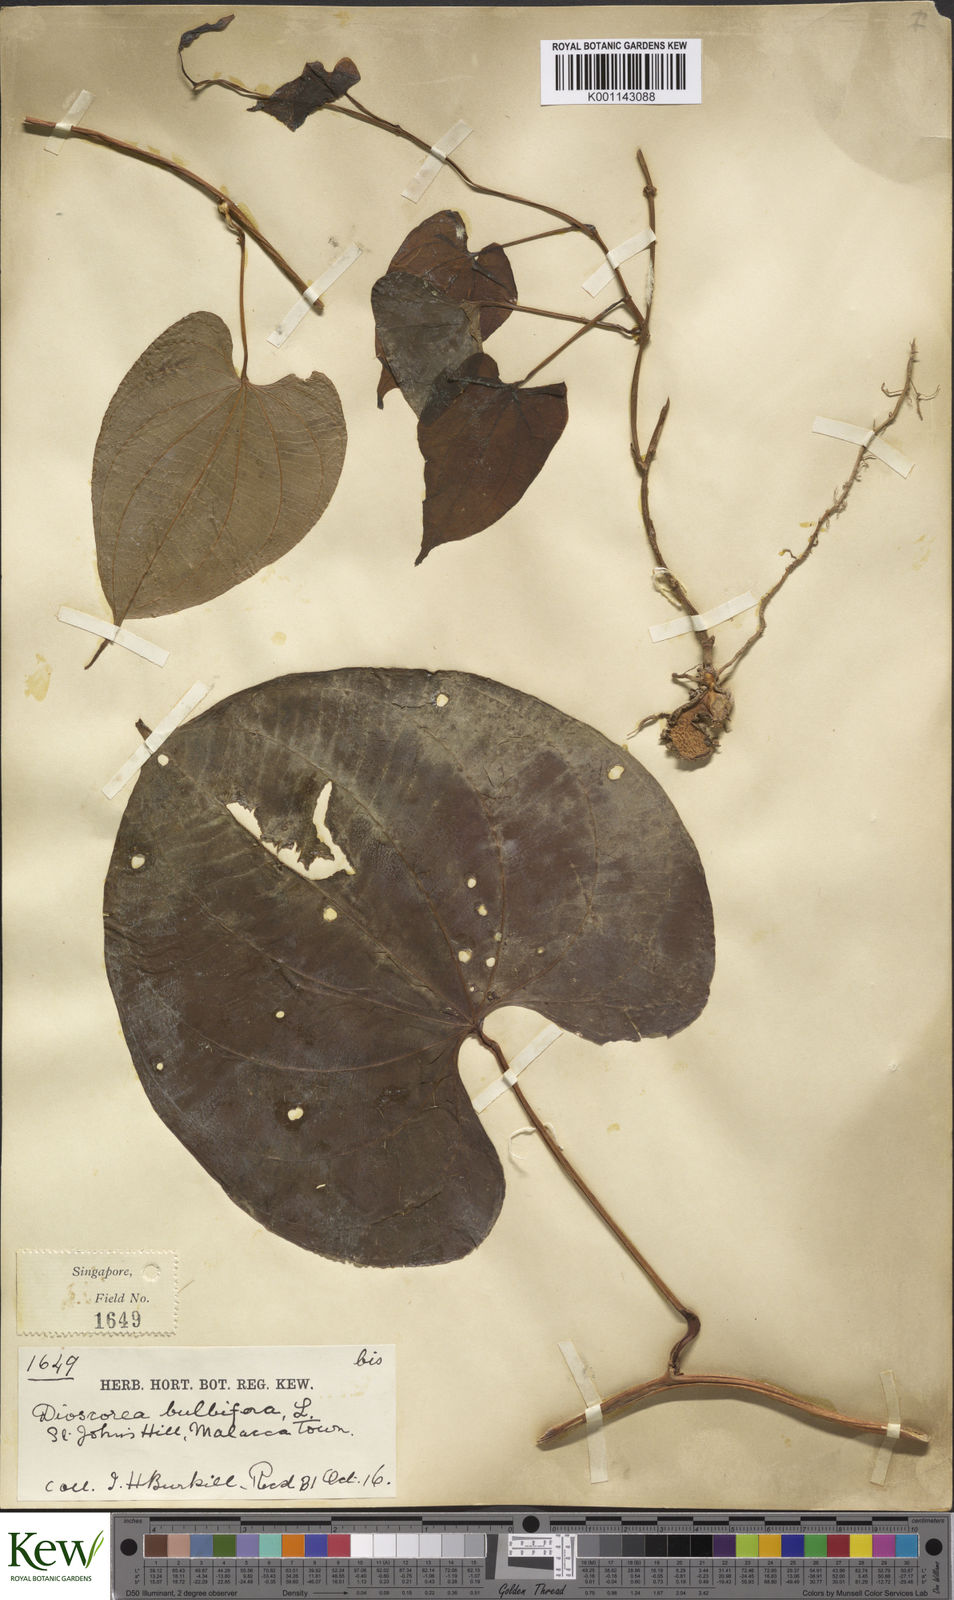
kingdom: Plantae
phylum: Tracheophyta
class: Liliopsida
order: Dioscoreales
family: Dioscoreaceae
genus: Dioscorea
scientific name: Dioscorea bulbifera
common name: Air yam
